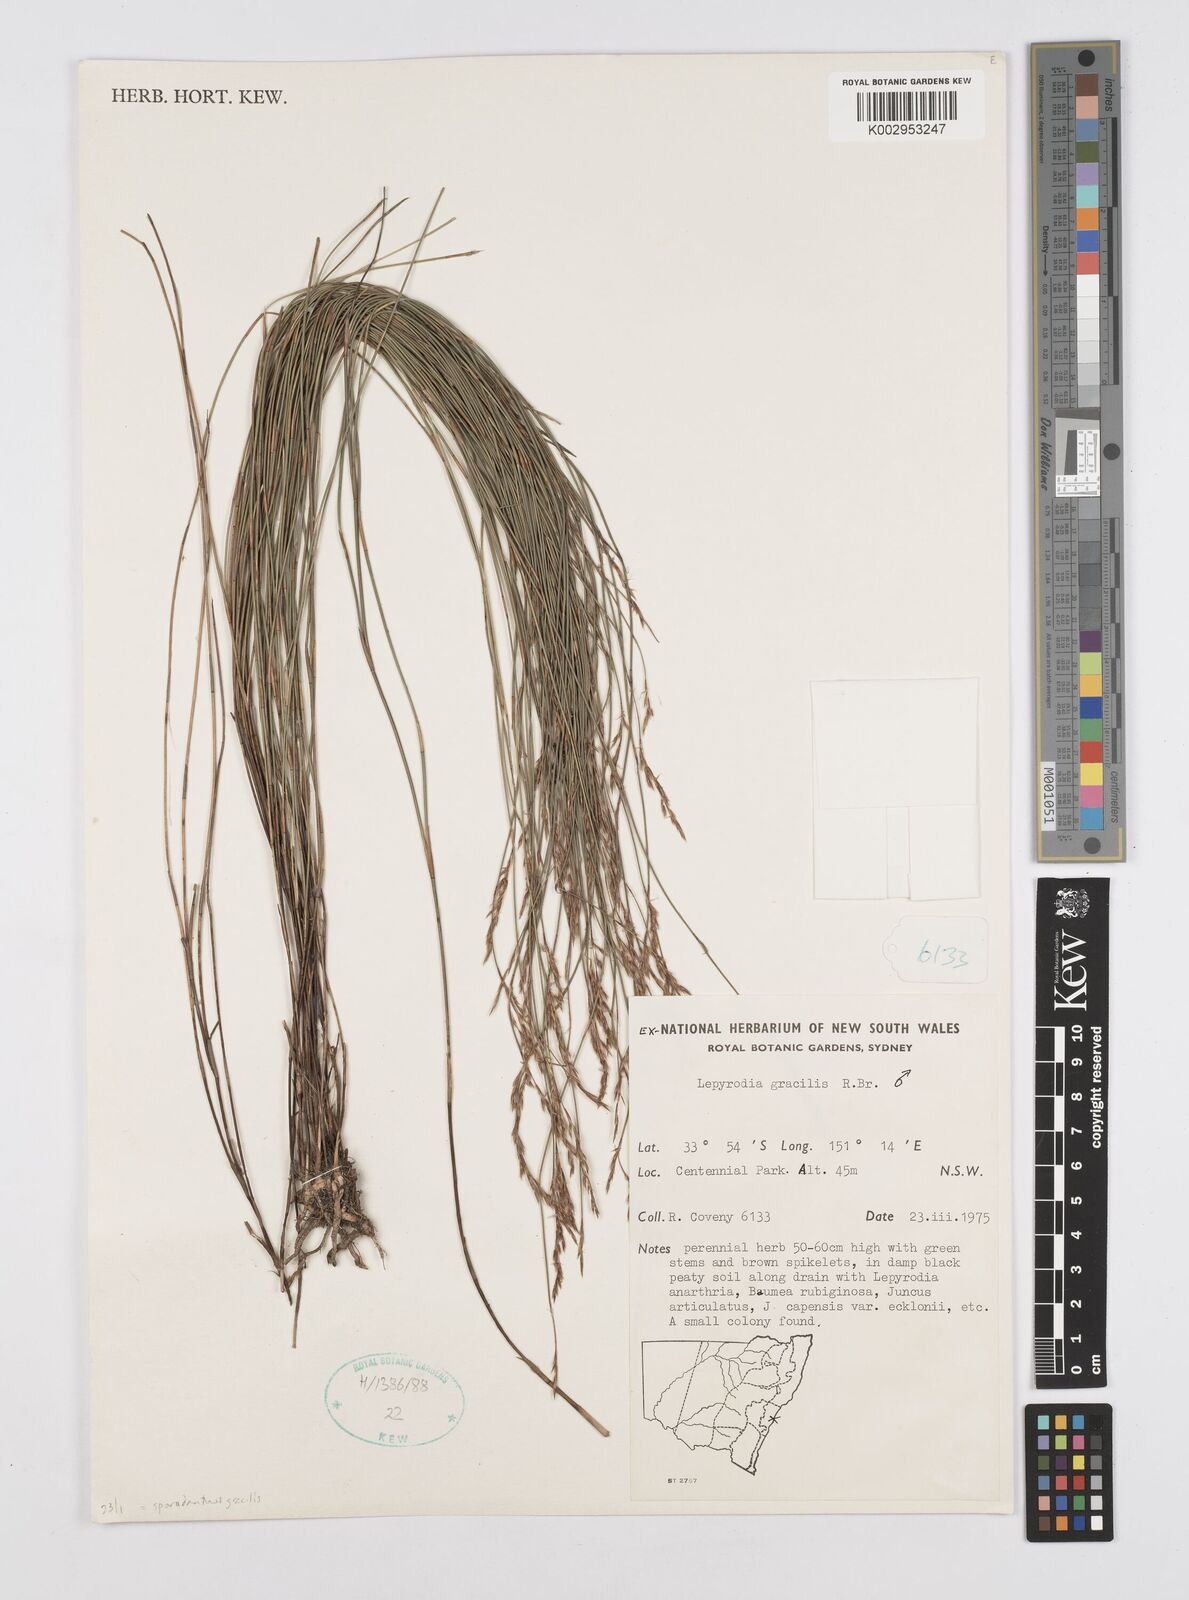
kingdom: Plantae
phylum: Tracheophyta
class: Liliopsida
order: Poales
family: Restionaceae
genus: Sporadanthus
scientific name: Sporadanthus gracilis
